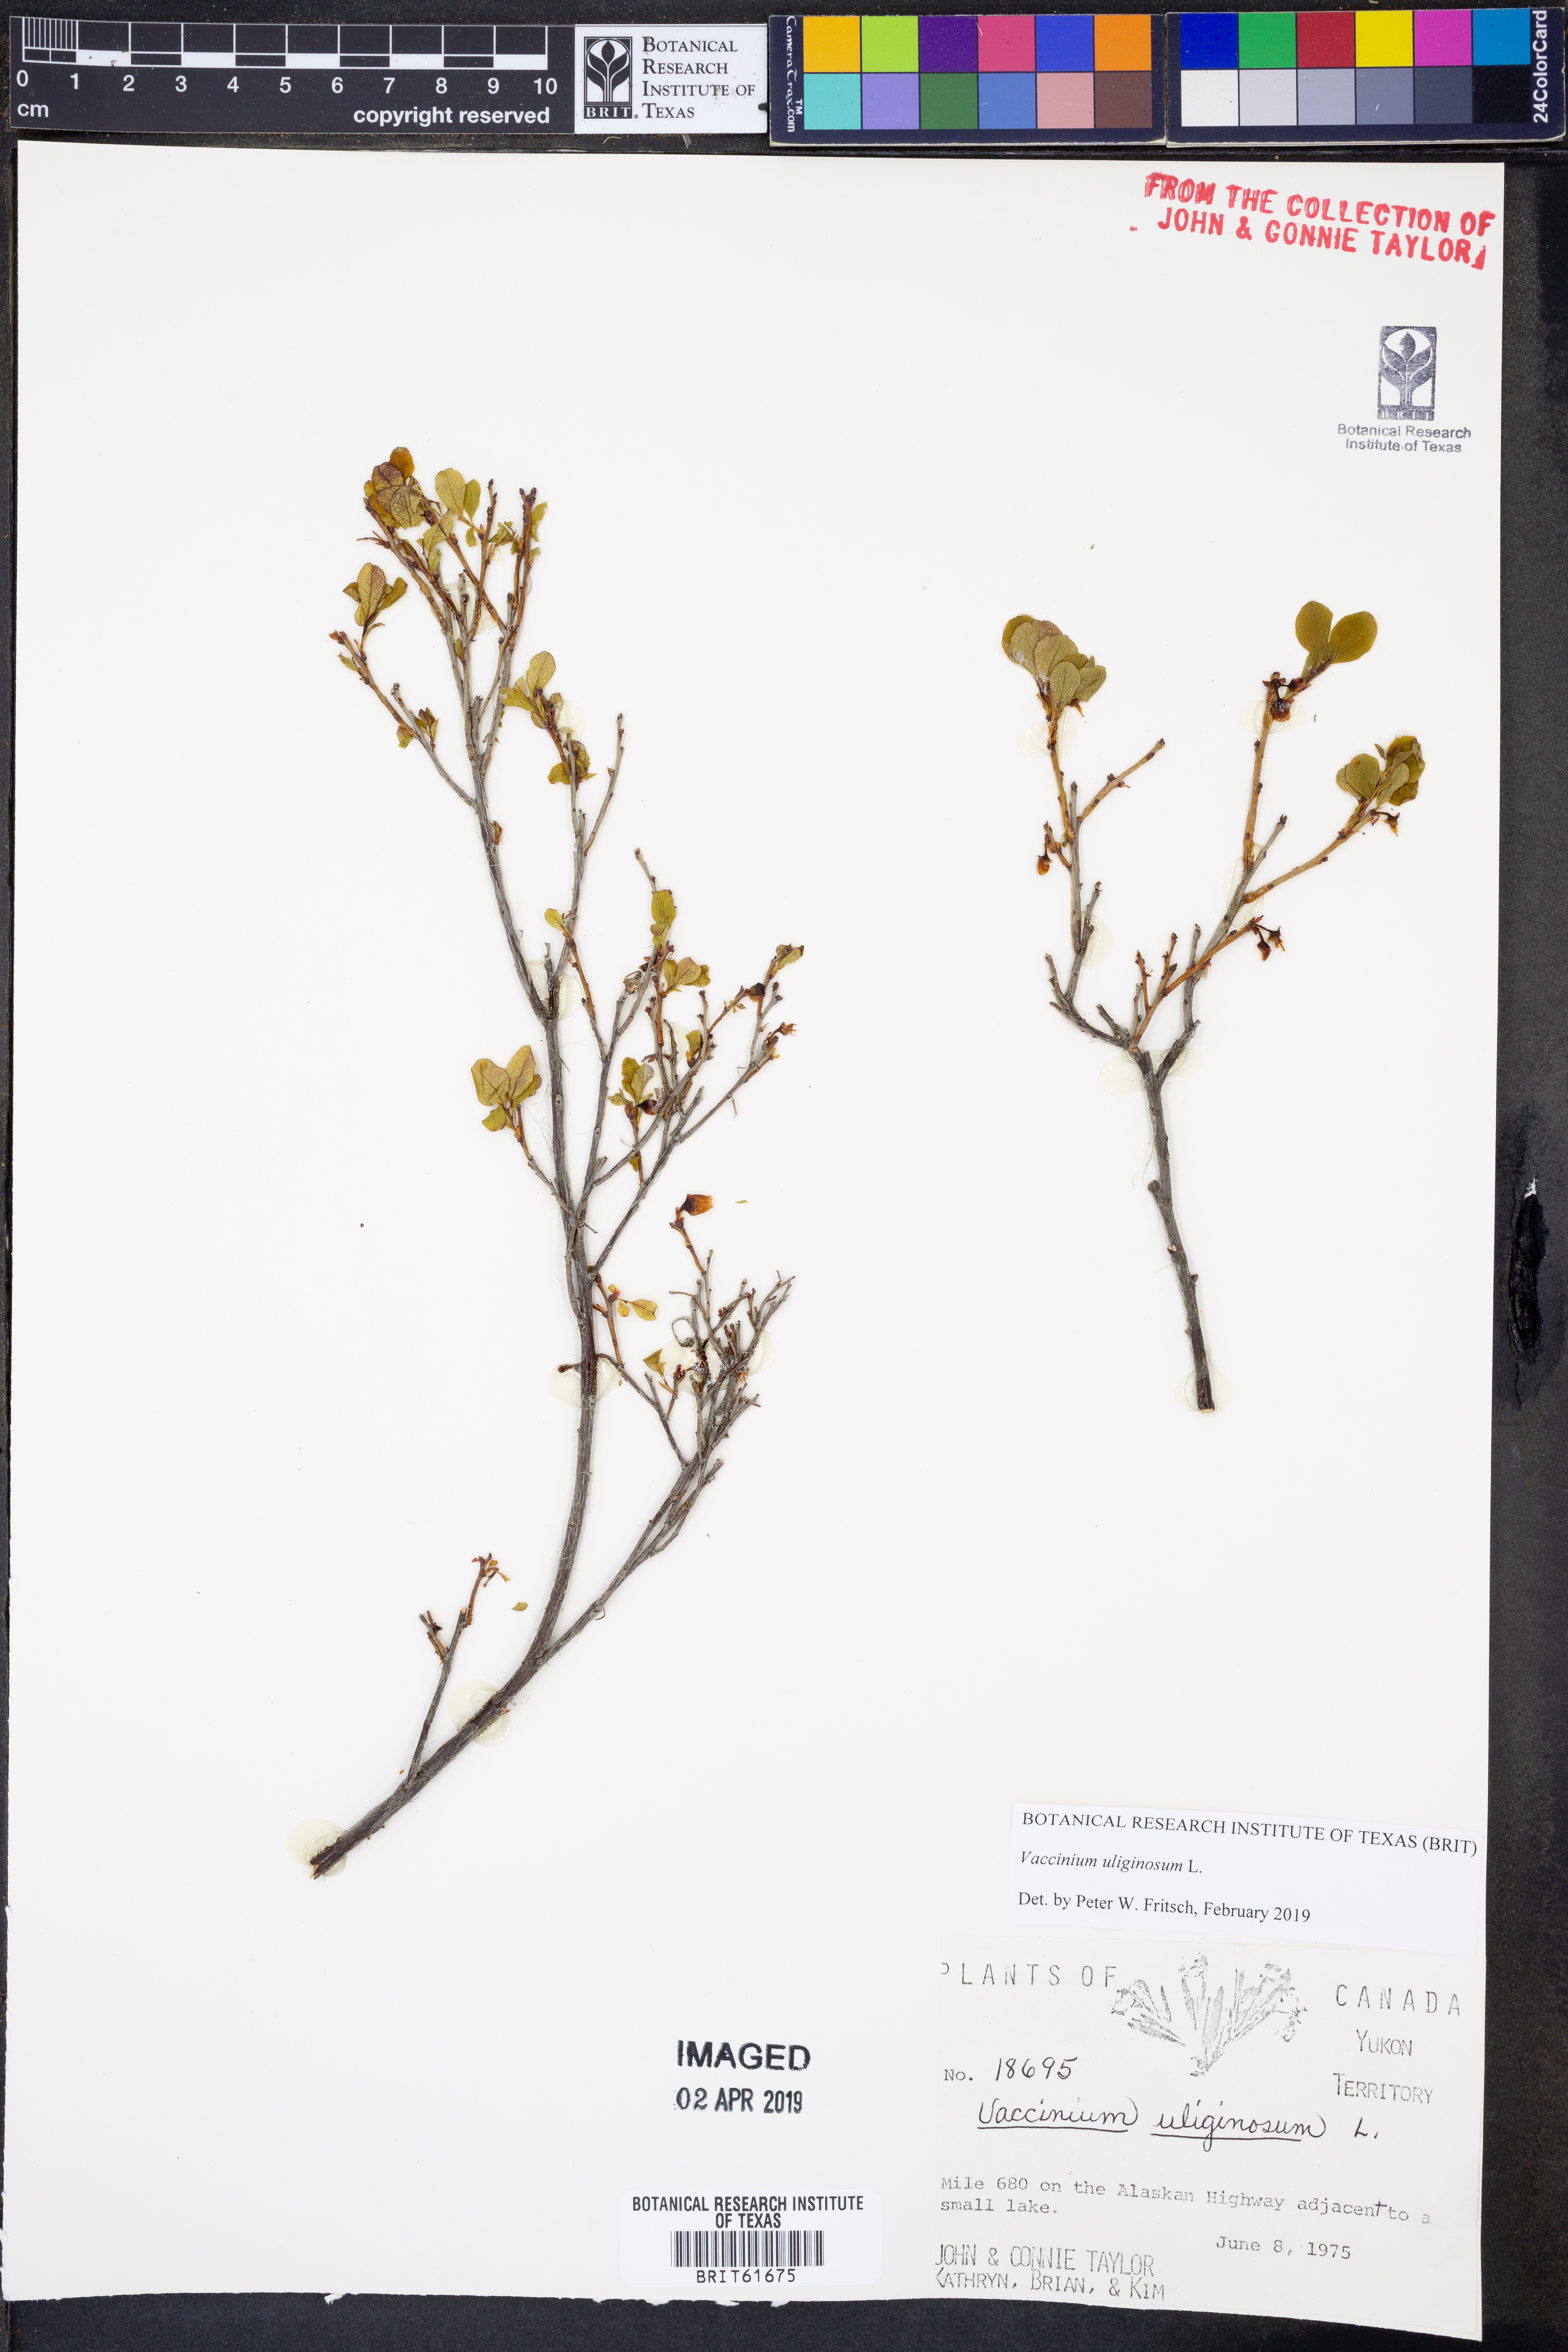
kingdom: Plantae
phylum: Tracheophyta
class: Magnoliopsida
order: Ericales
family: Ericaceae
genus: Vaccinium
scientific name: Vaccinium uliginosum
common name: Bog bilberry
